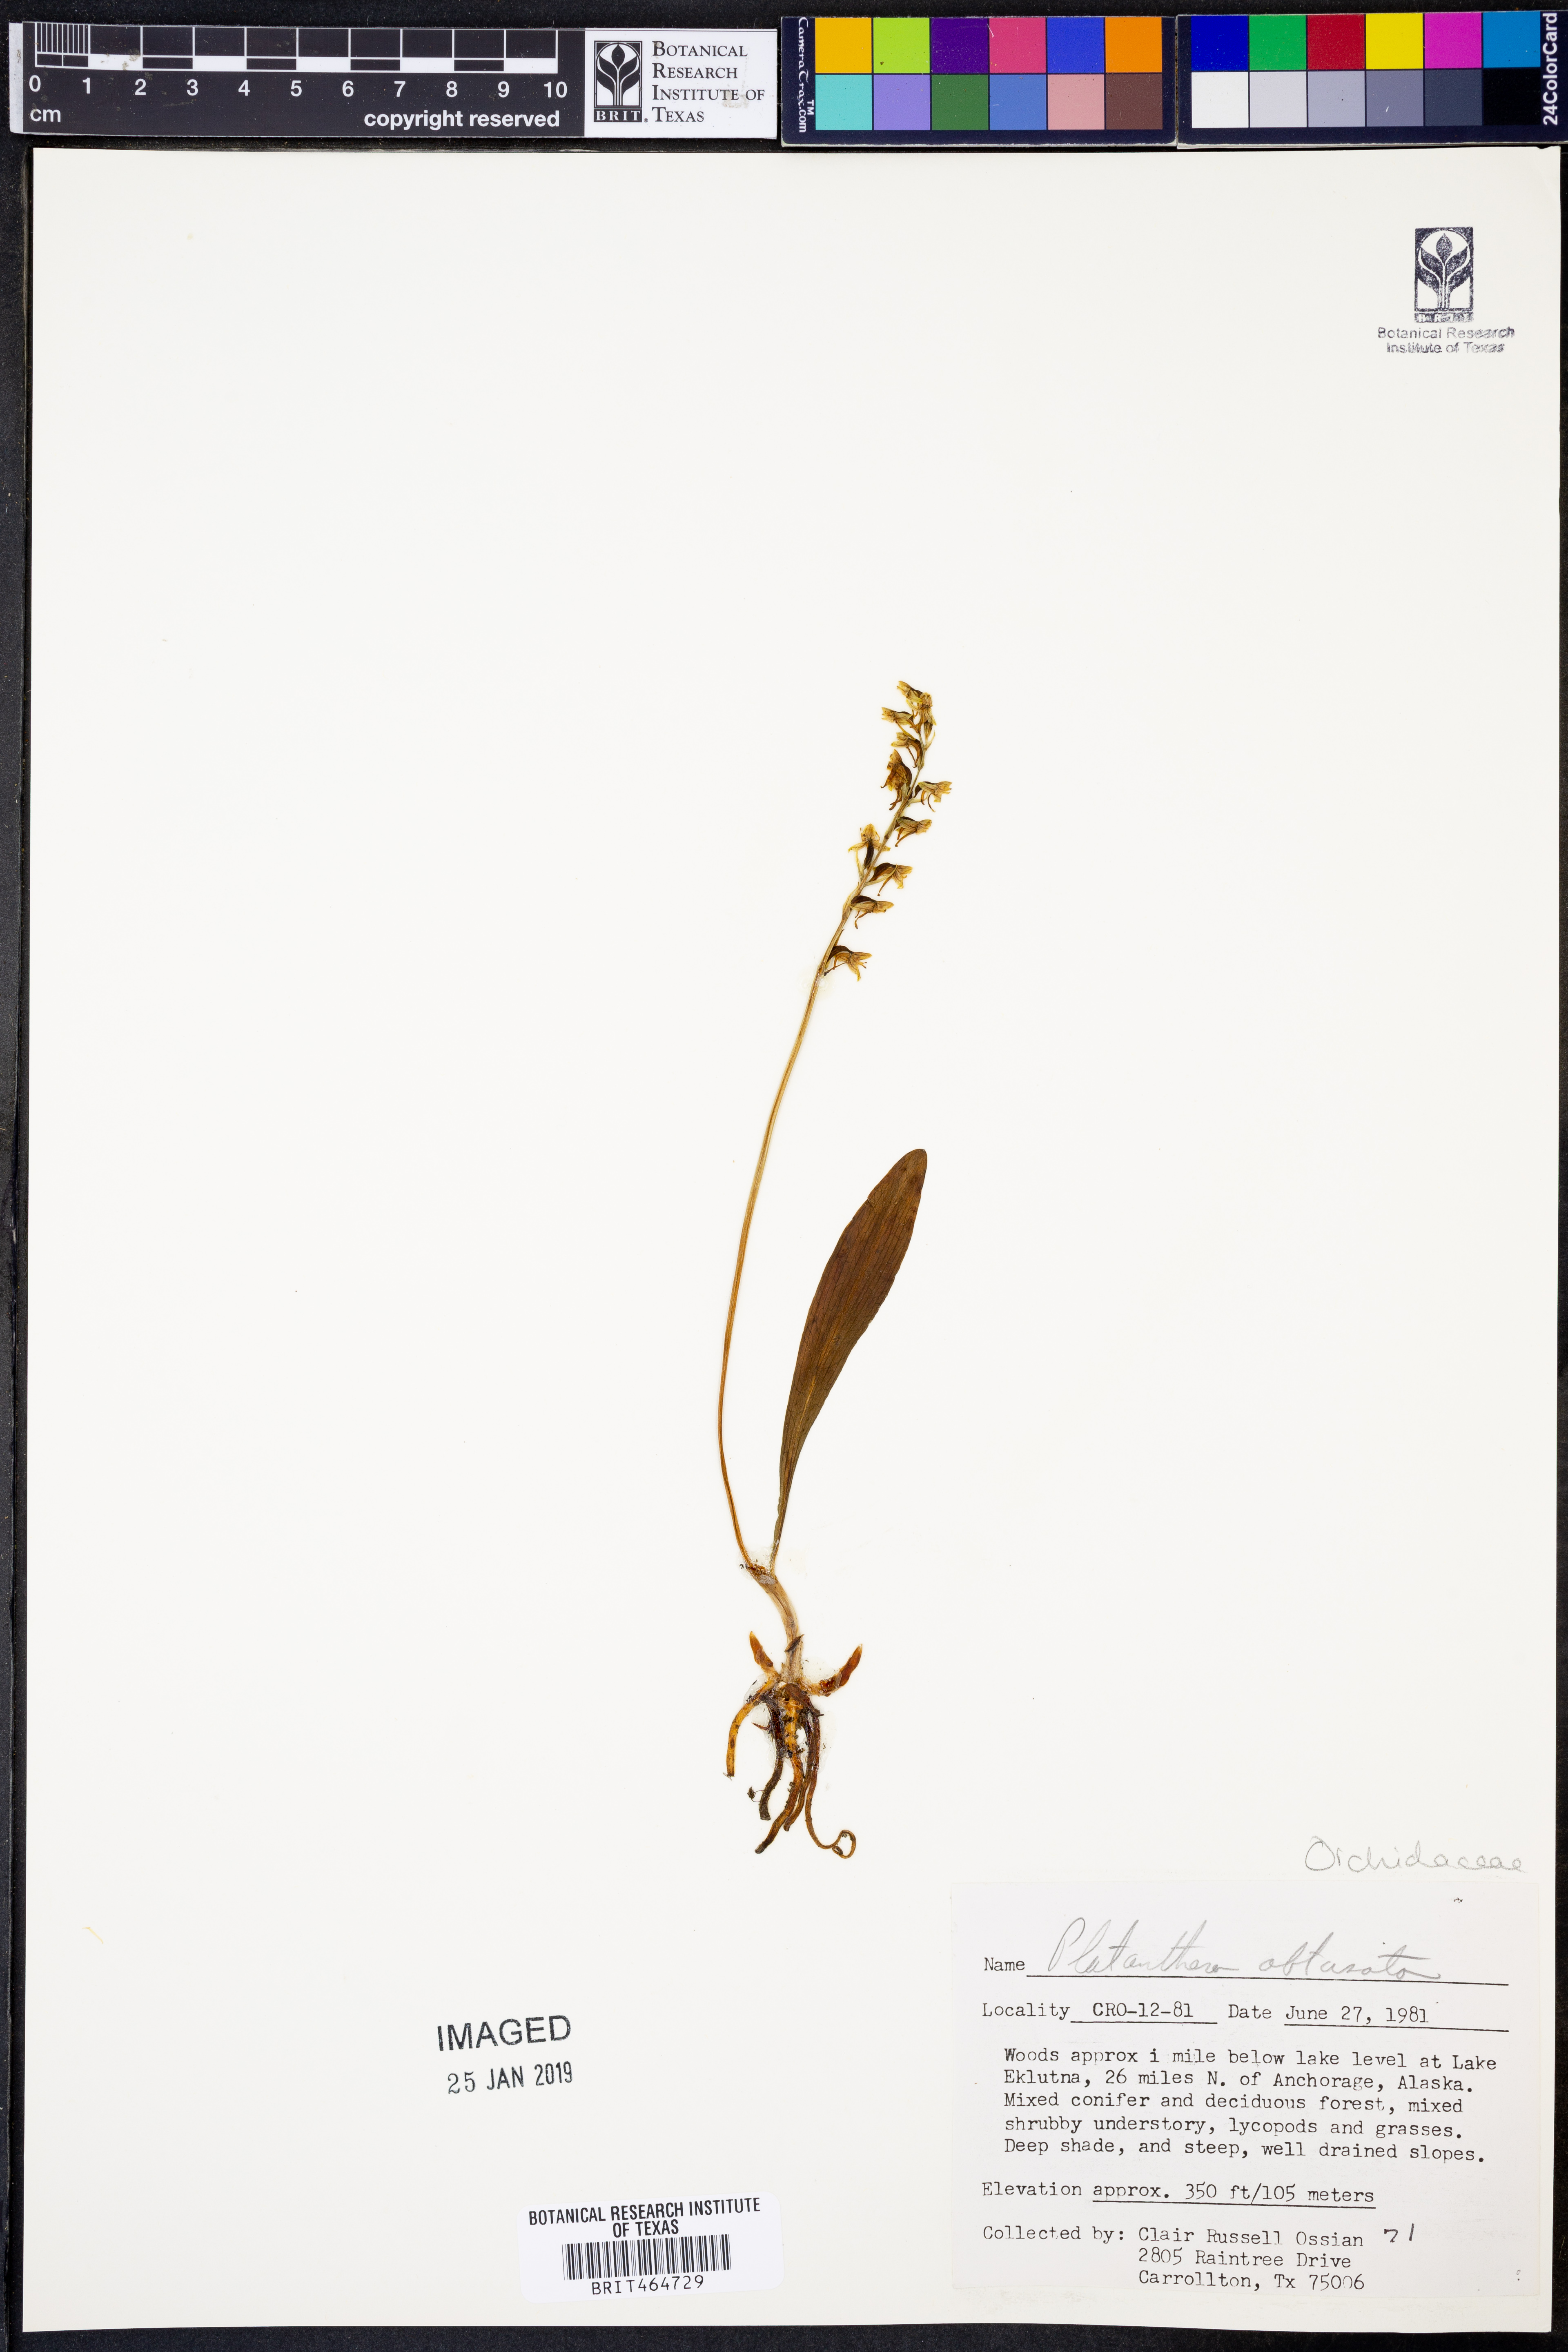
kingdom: Plantae
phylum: Tracheophyta
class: Liliopsida
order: Asparagales
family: Orchidaceae
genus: Platanthera
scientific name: Platanthera obtusata
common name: Blunt bog orchid
